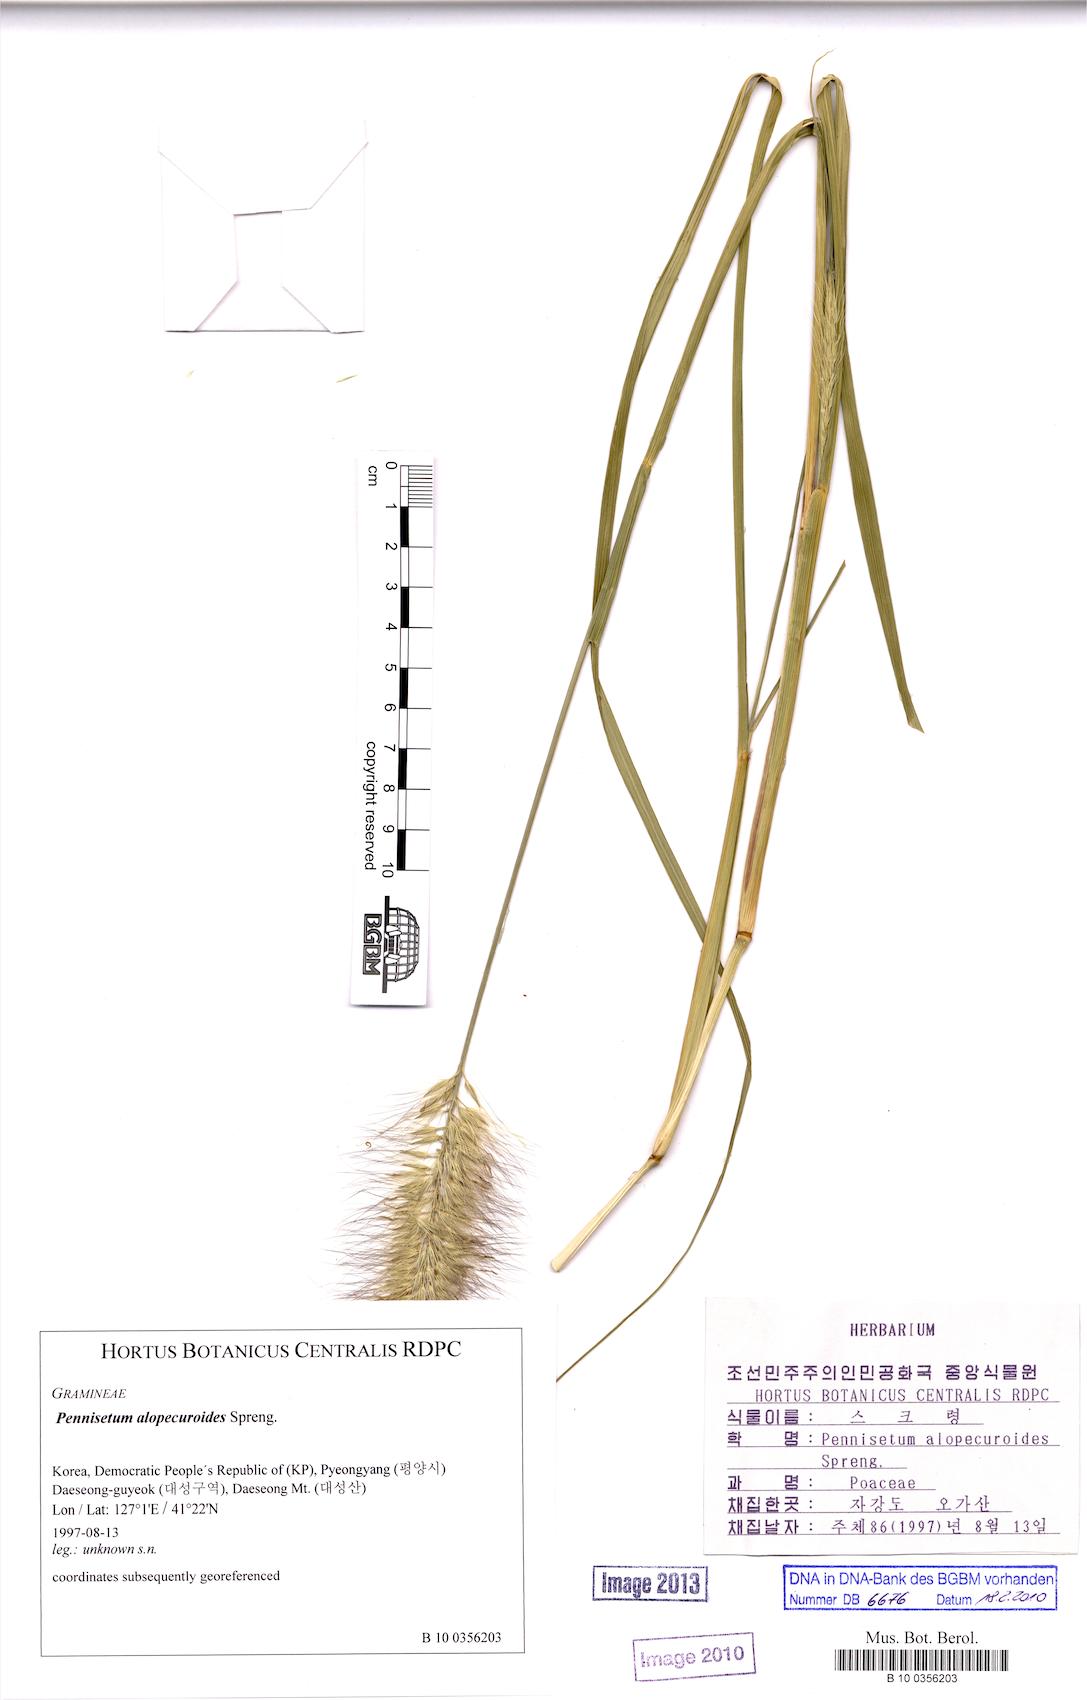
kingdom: Plantae
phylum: Tracheophyta
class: Liliopsida
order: Poales
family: Poaceae
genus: Cenchrus
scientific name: Cenchrus alopecuroides
